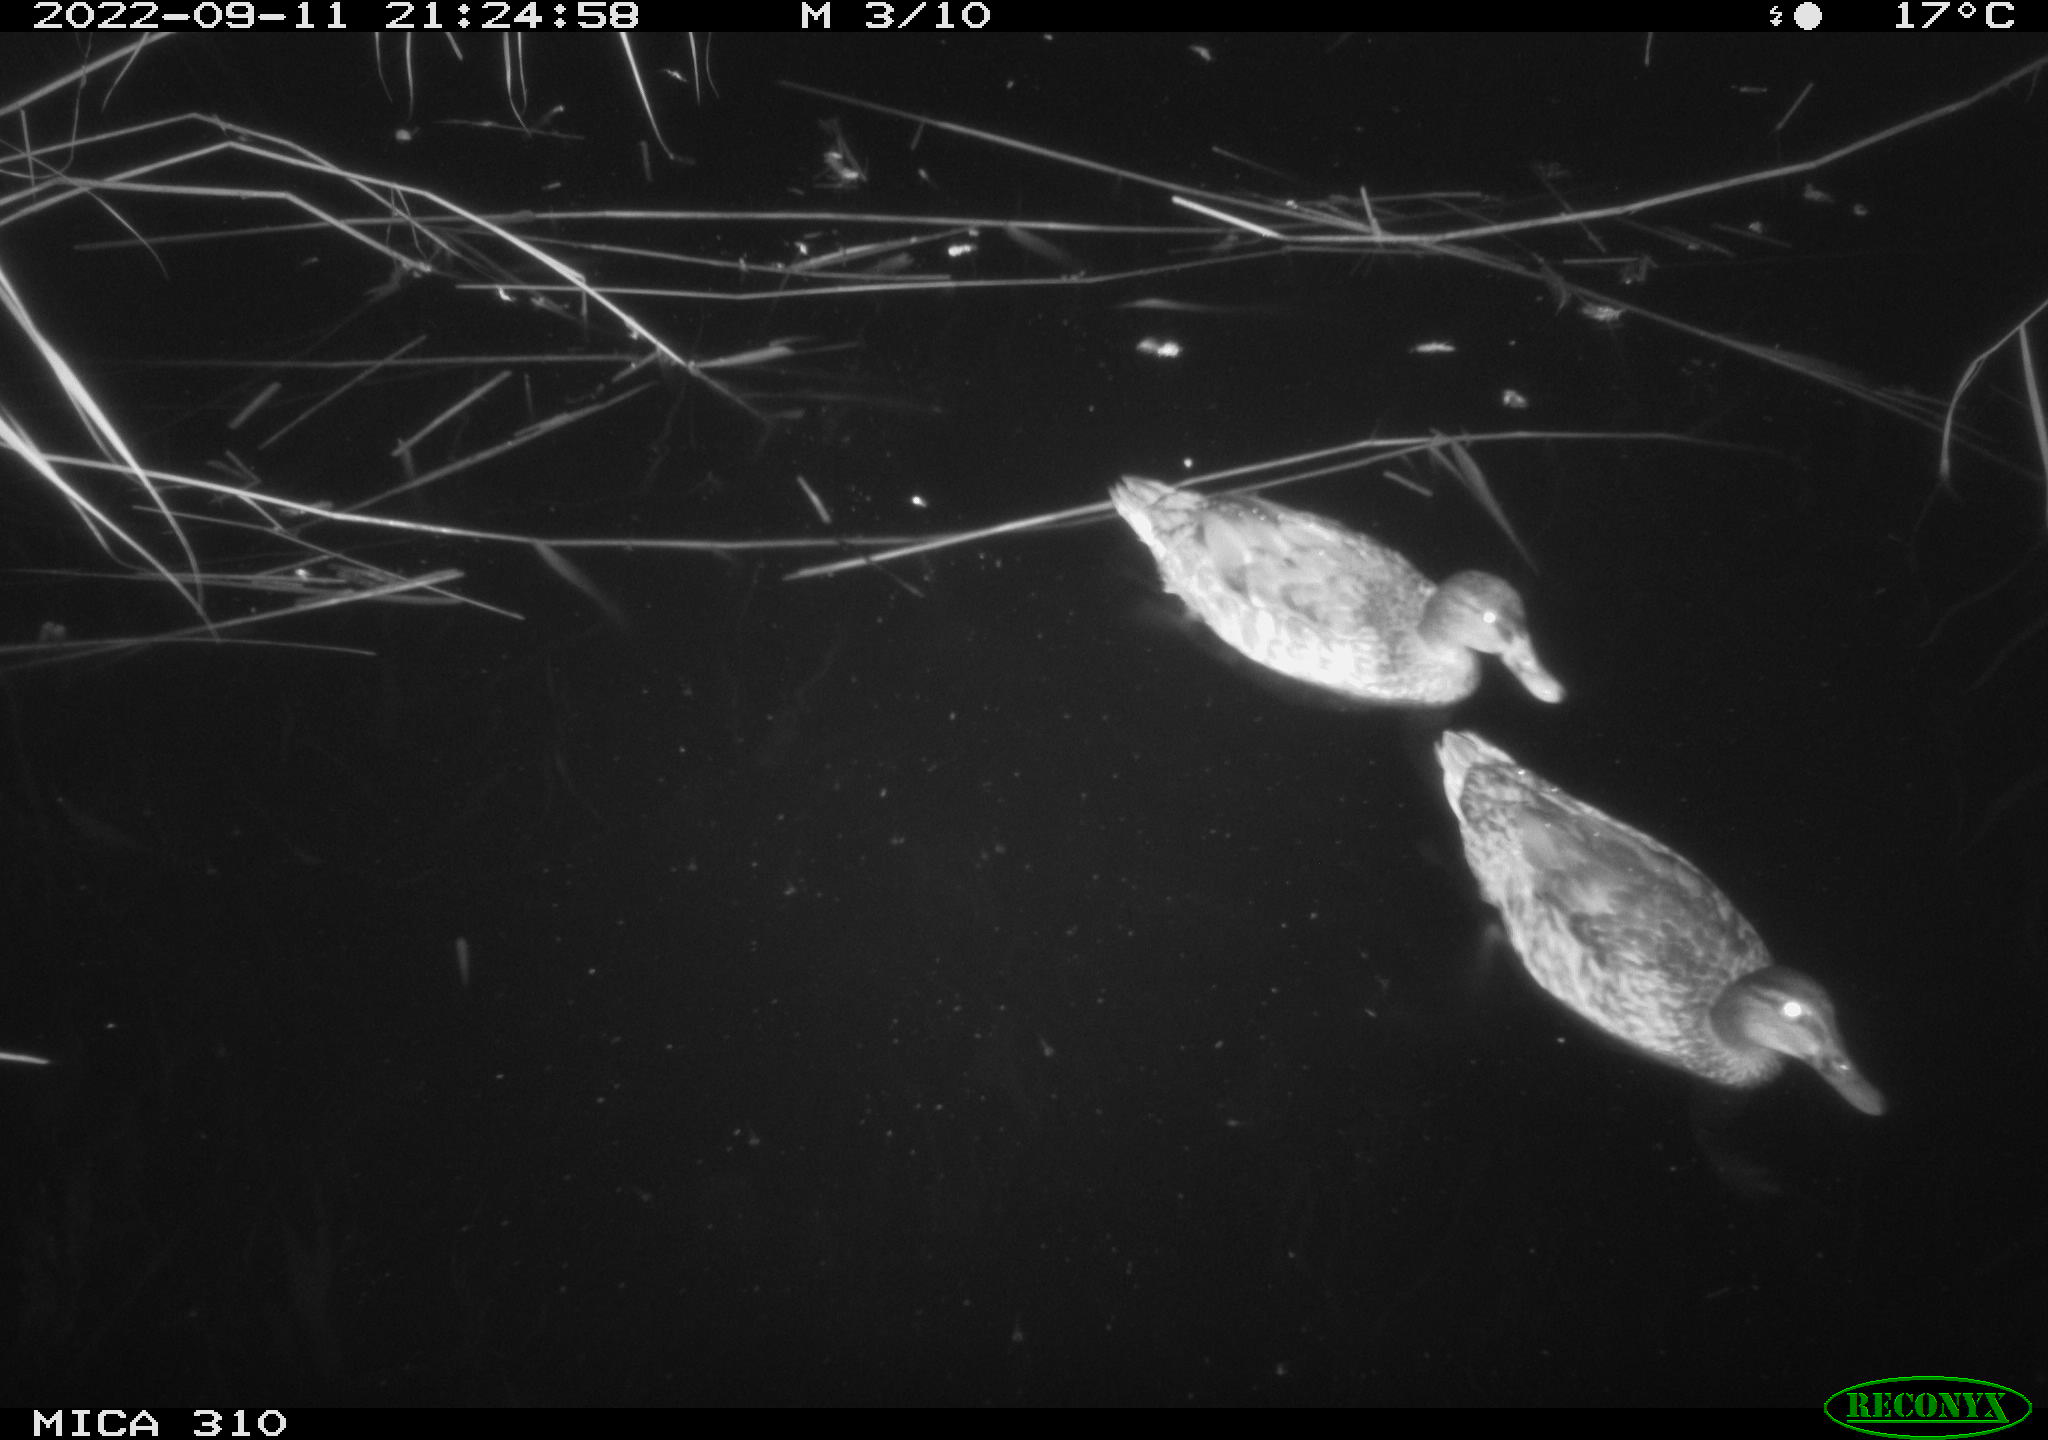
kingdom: Animalia
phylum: Chordata
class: Aves
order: Anseriformes
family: Anatidae
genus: Anas
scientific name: Anas
